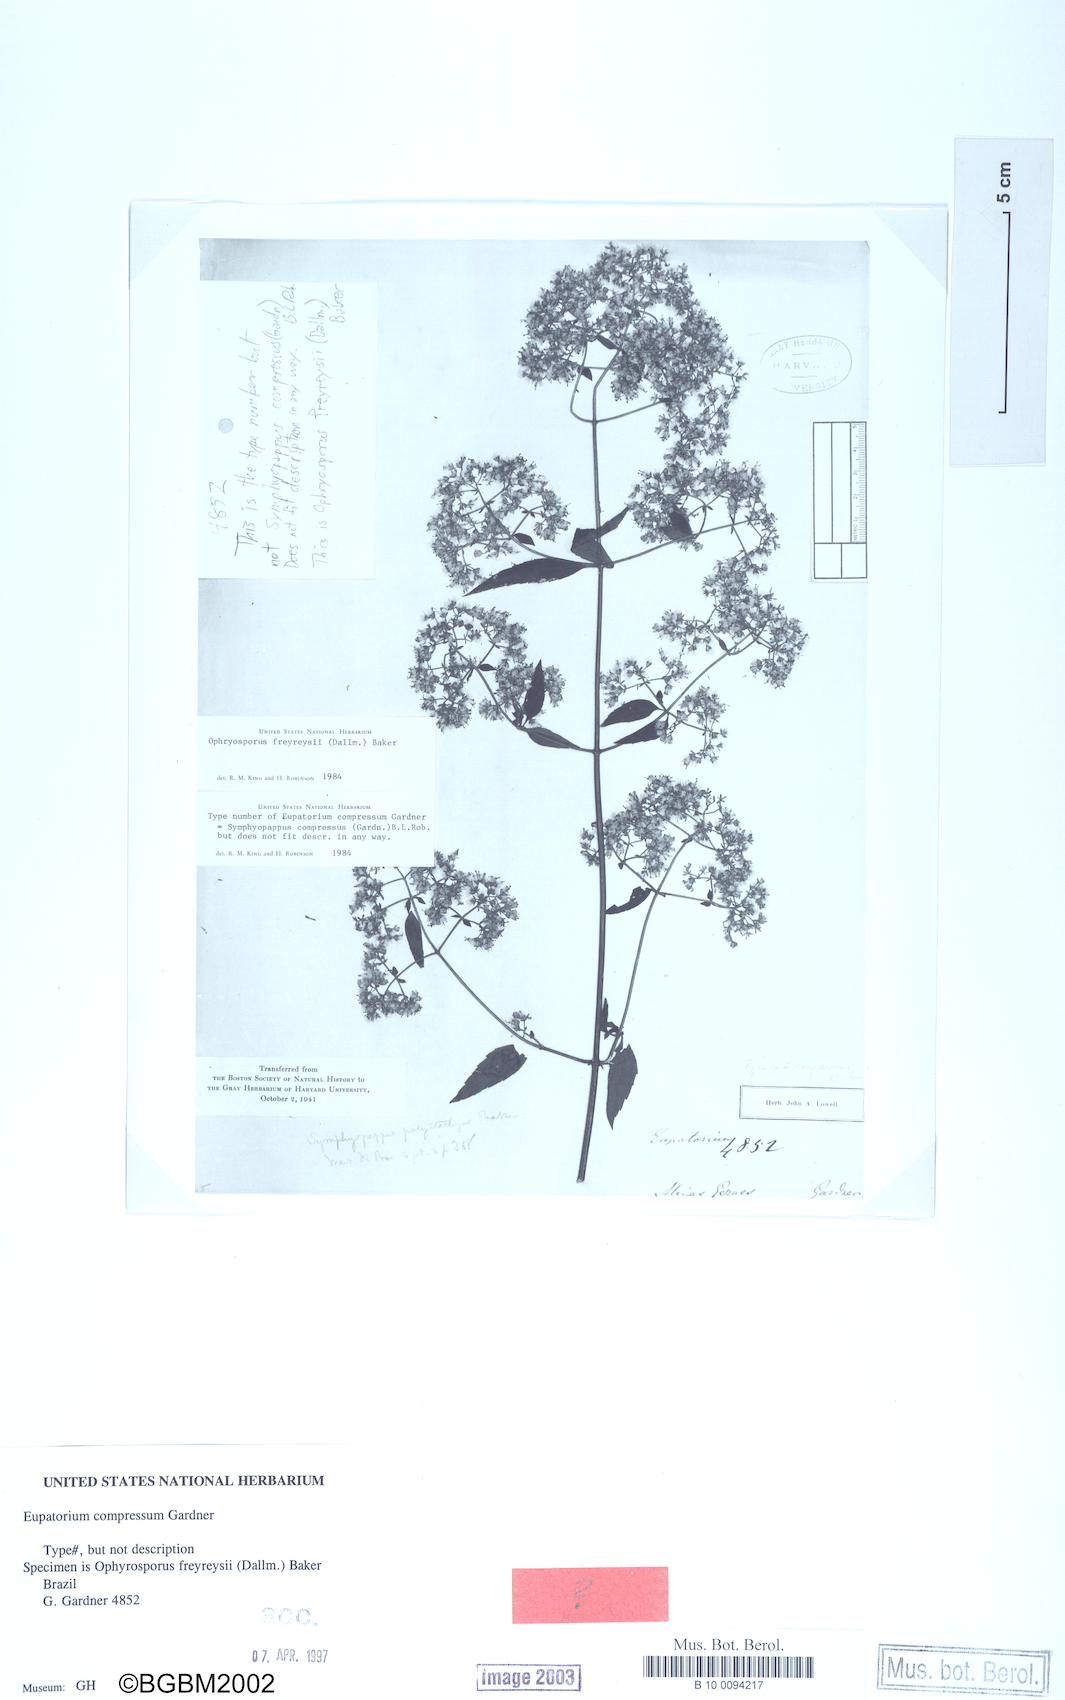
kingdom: Plantae
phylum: Tracheophyta
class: Magnoliopsida
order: Asterales
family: Asteraceae
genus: Ophryosporus
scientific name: Ophryosporus freyreysi
